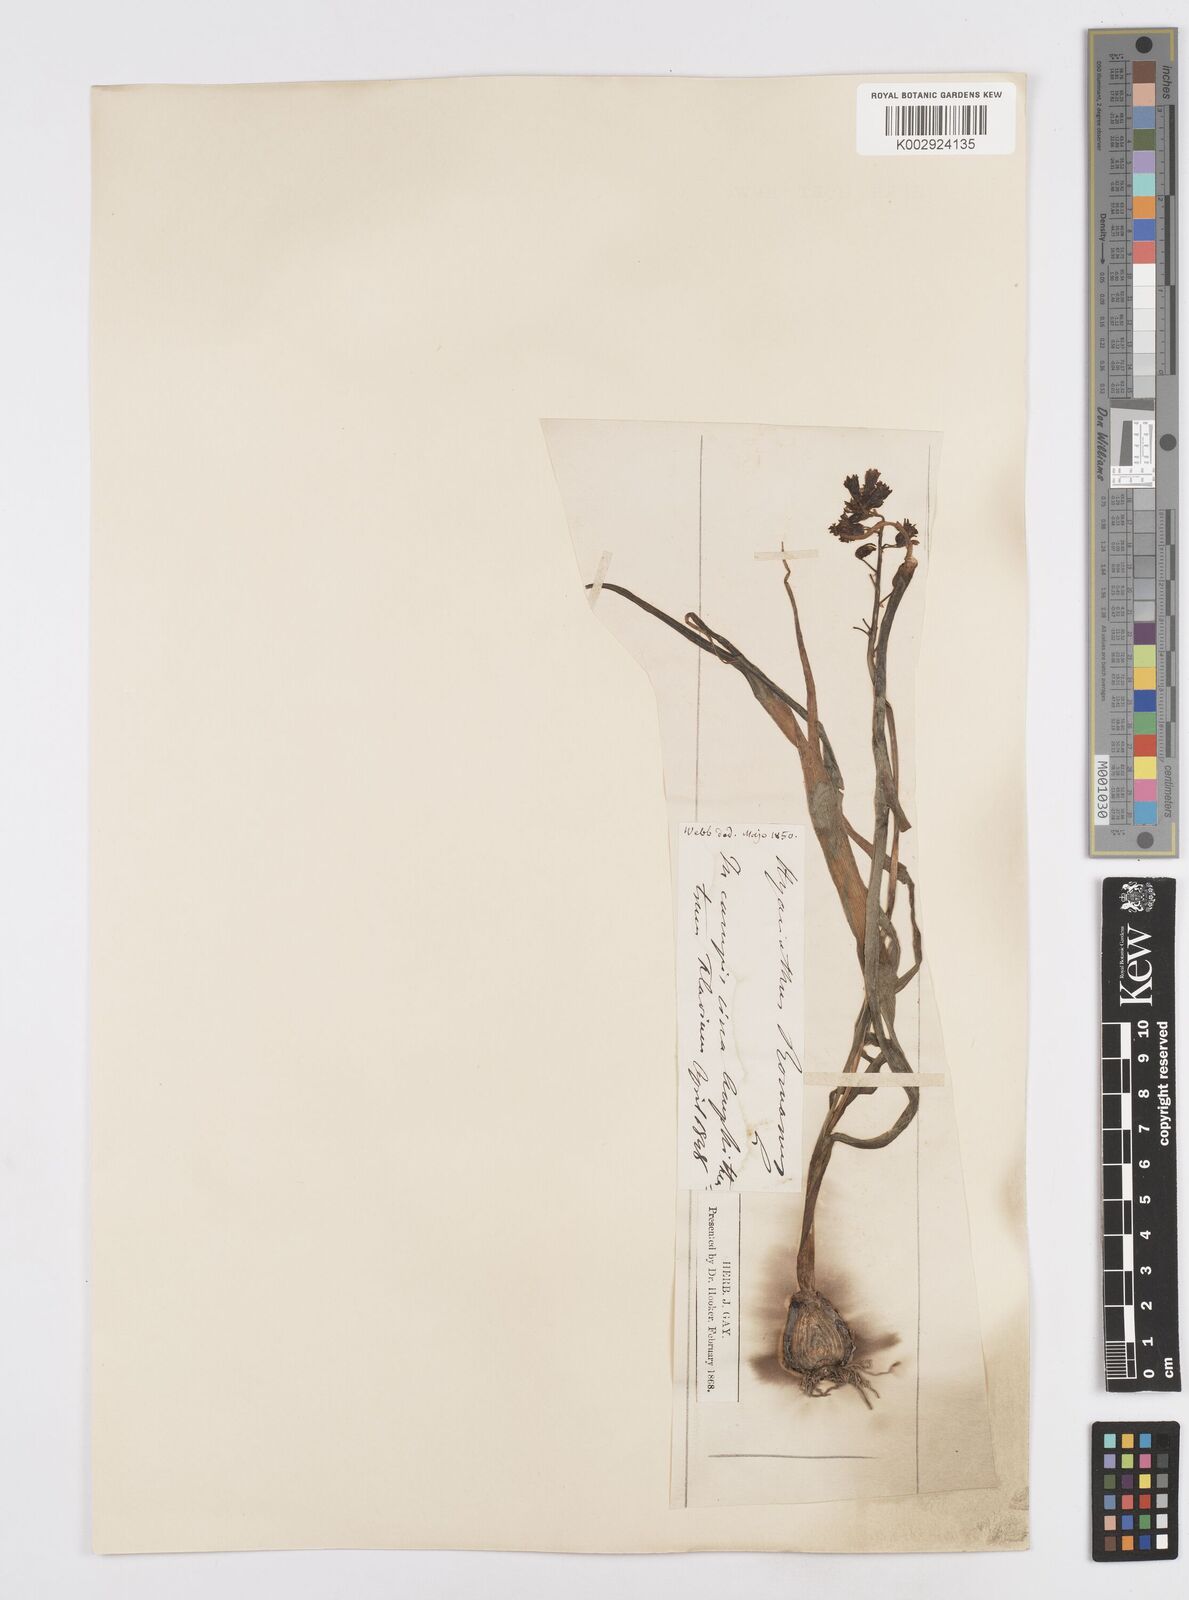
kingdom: Plantae
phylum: Tracheophyta
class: Liliopsida
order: Asparagales
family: Asparagaceae
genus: Bellevalia
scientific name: Bellevalia
